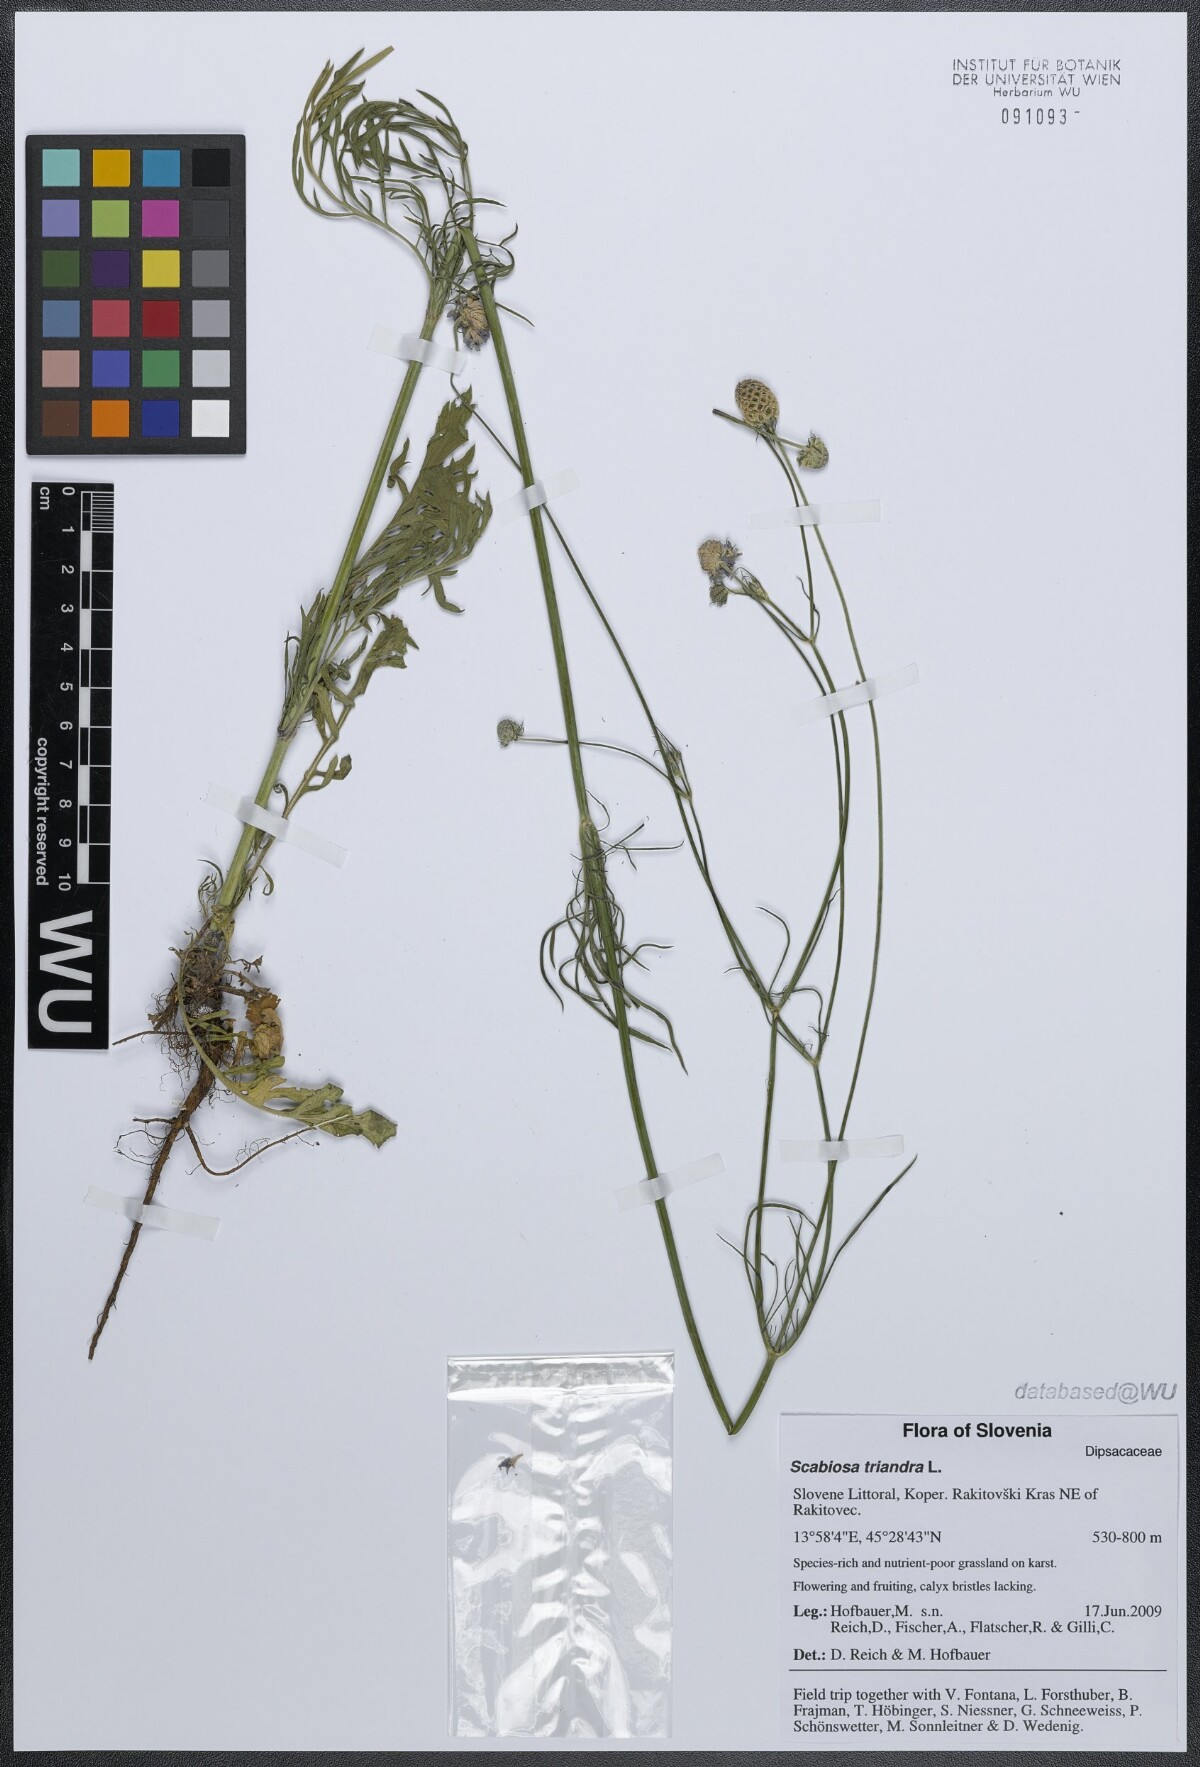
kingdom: Plantae
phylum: Tracheophyta
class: Magnoliopsida
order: Dipsacales
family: Caprifoliaceae
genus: Scabiosa
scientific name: Scabiosa triandra
